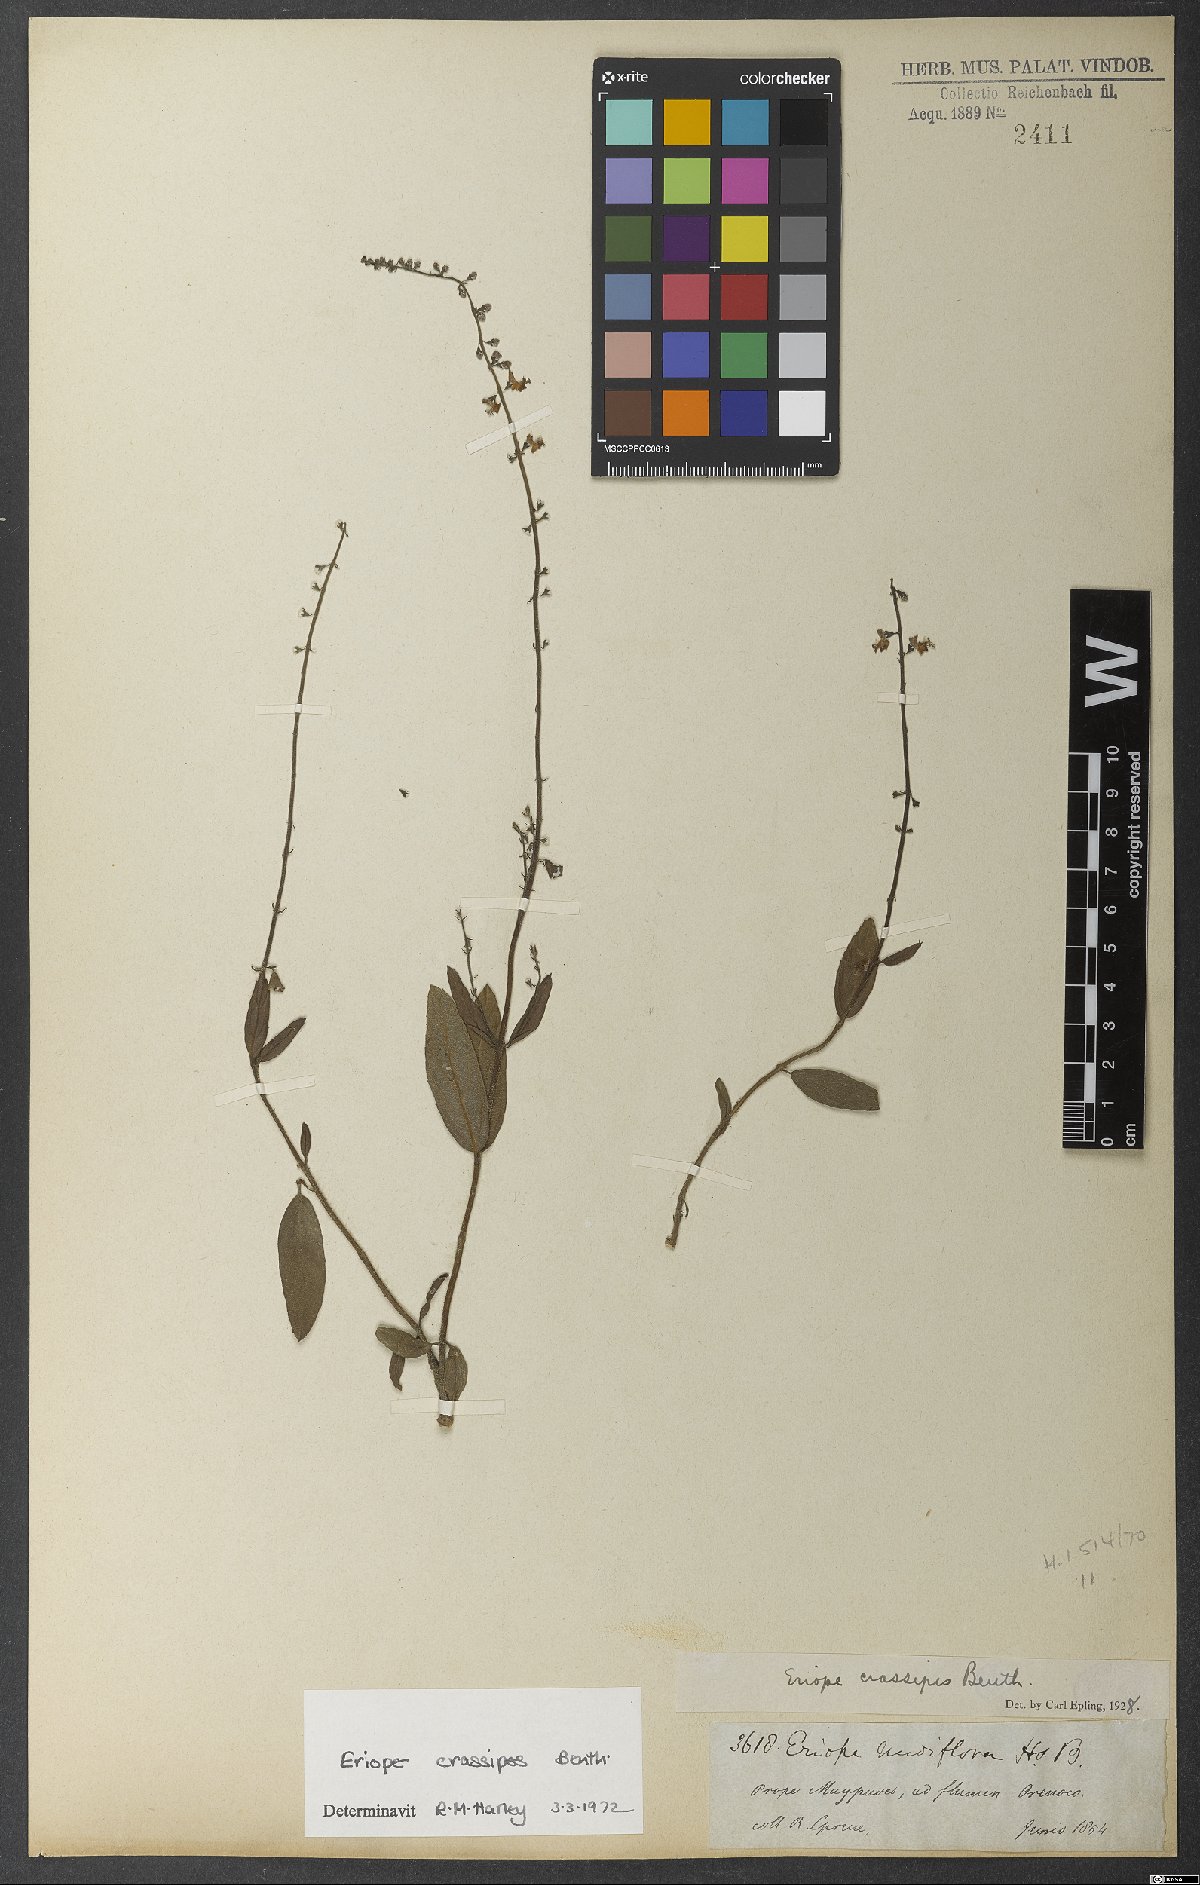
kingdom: Plantae
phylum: Tracheophyta
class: Magnoliopsida
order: Lamiales
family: Lamiaceae
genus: Eriope
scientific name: Eriope crassipes
